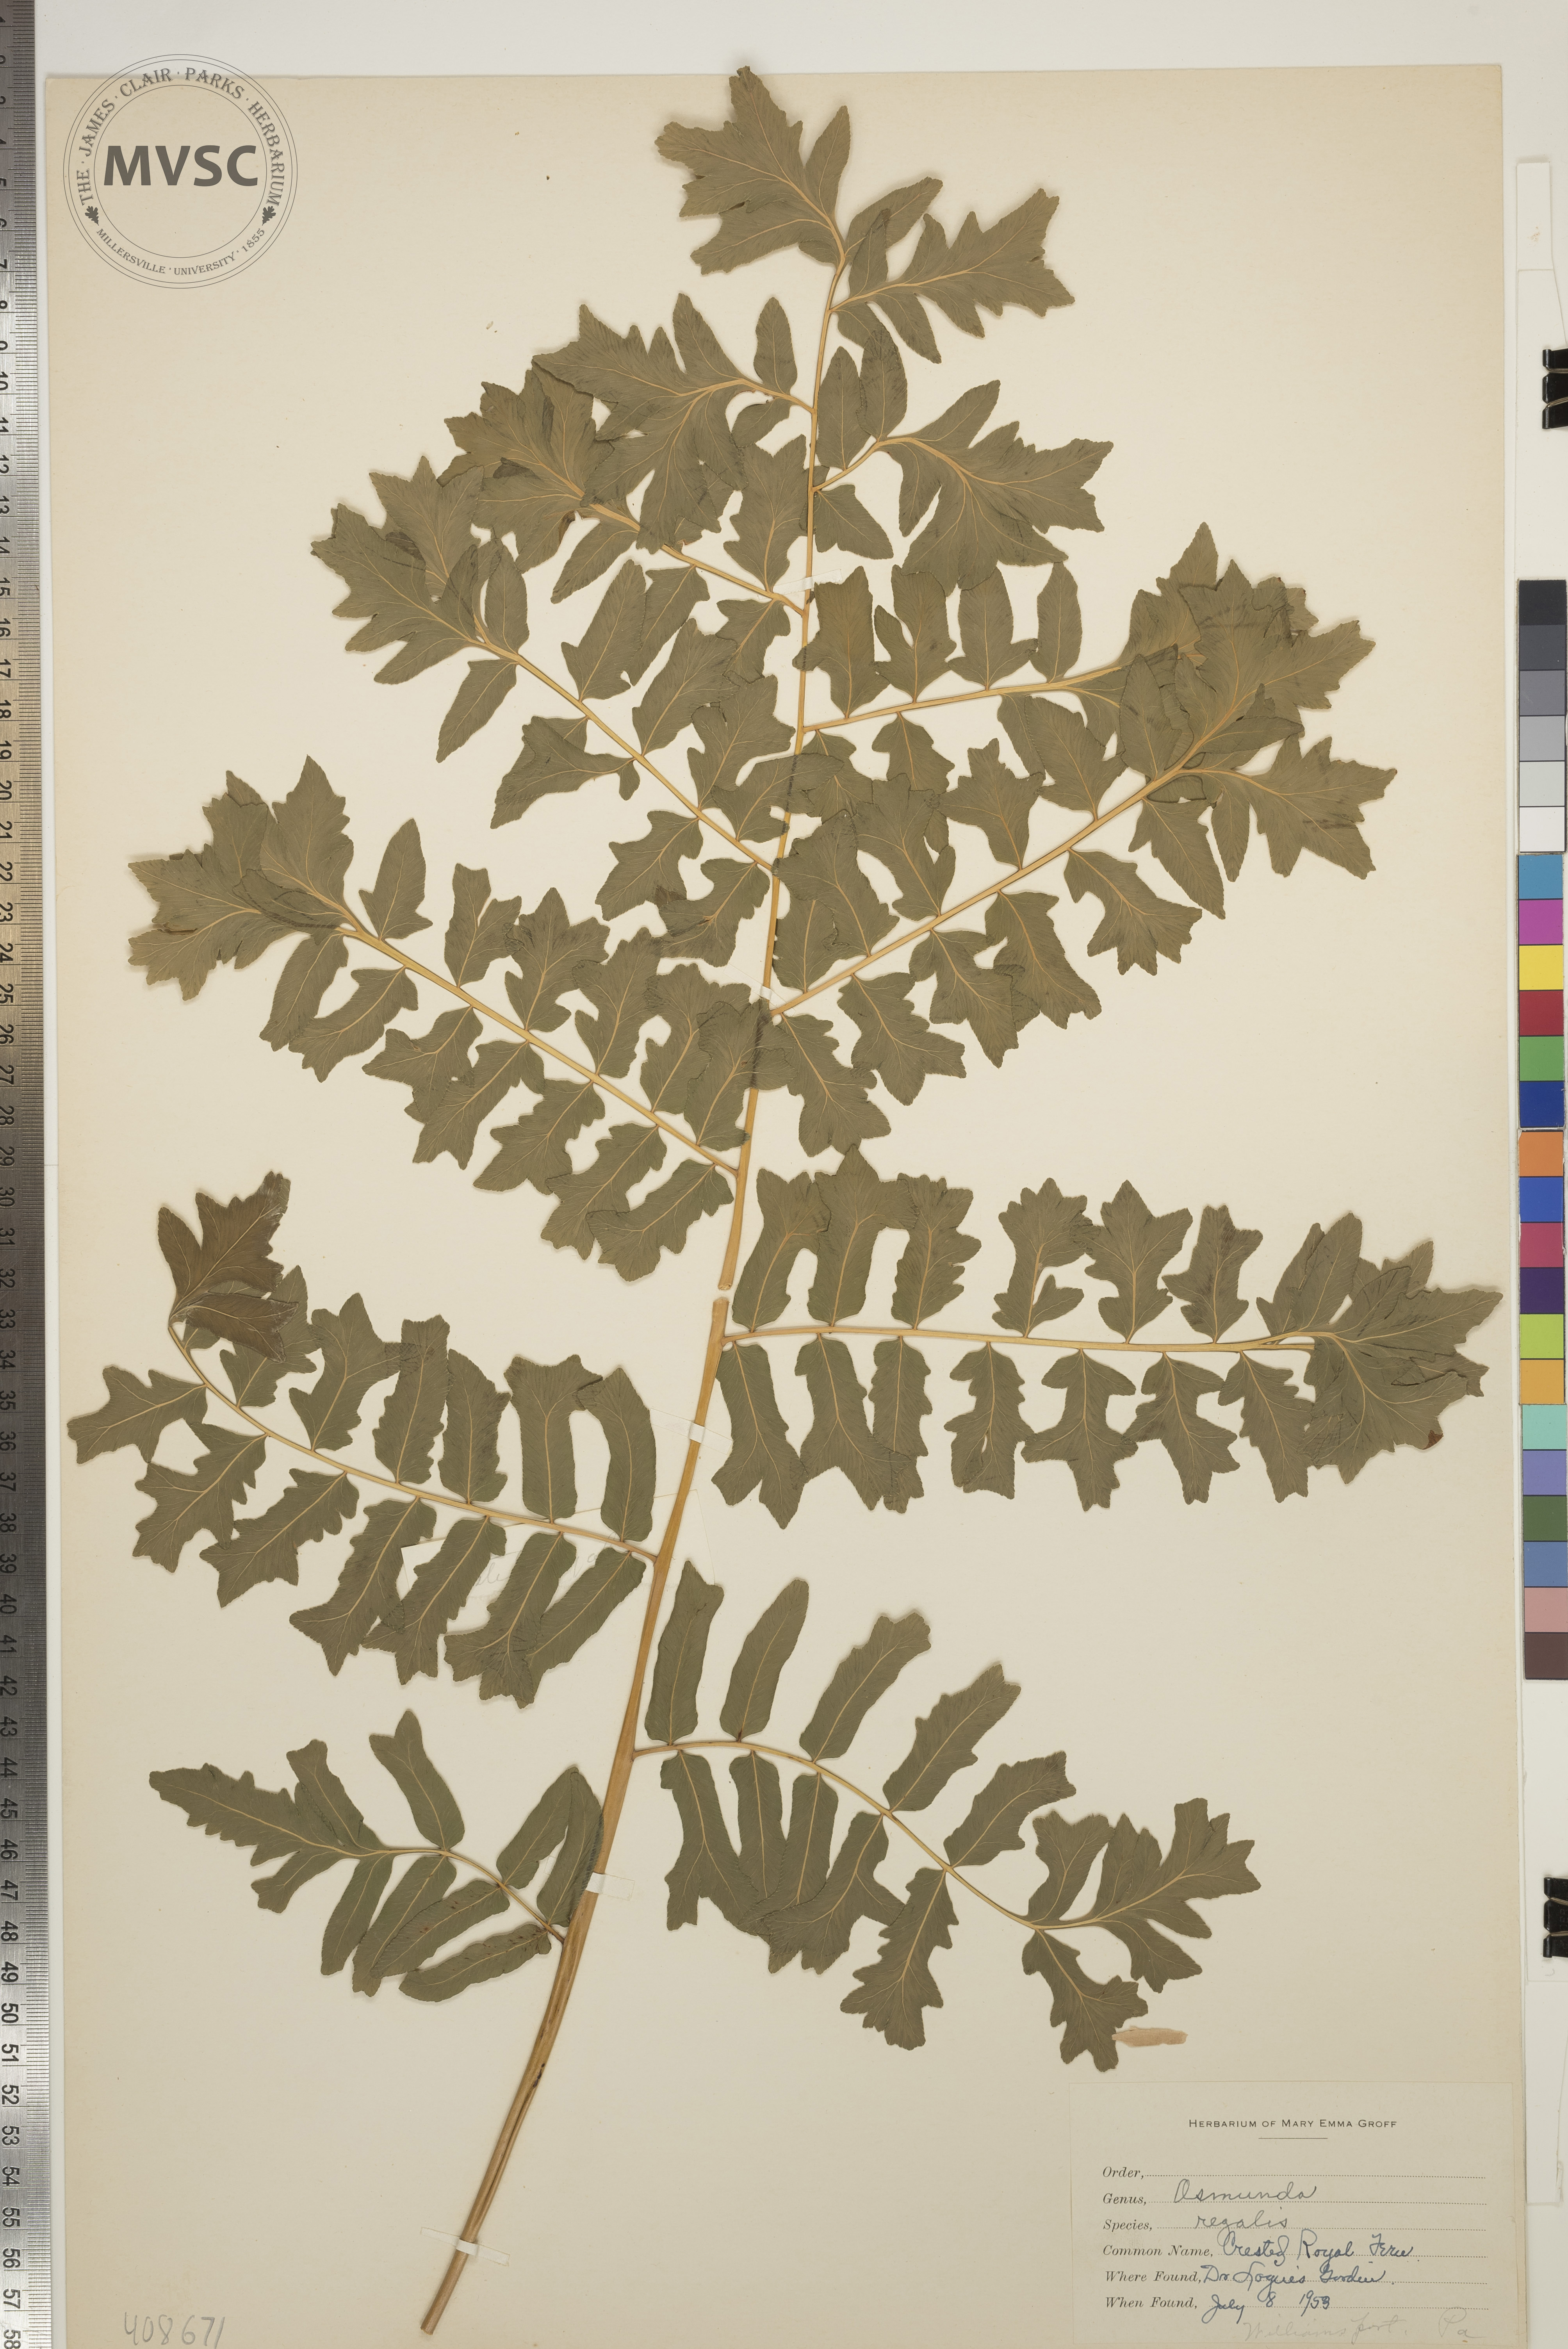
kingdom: Plantae
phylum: Tracheophyta
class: Polypodiopsida
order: Osmundales
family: Osmundaceae
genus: Osmunda
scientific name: Osmunda regalis
